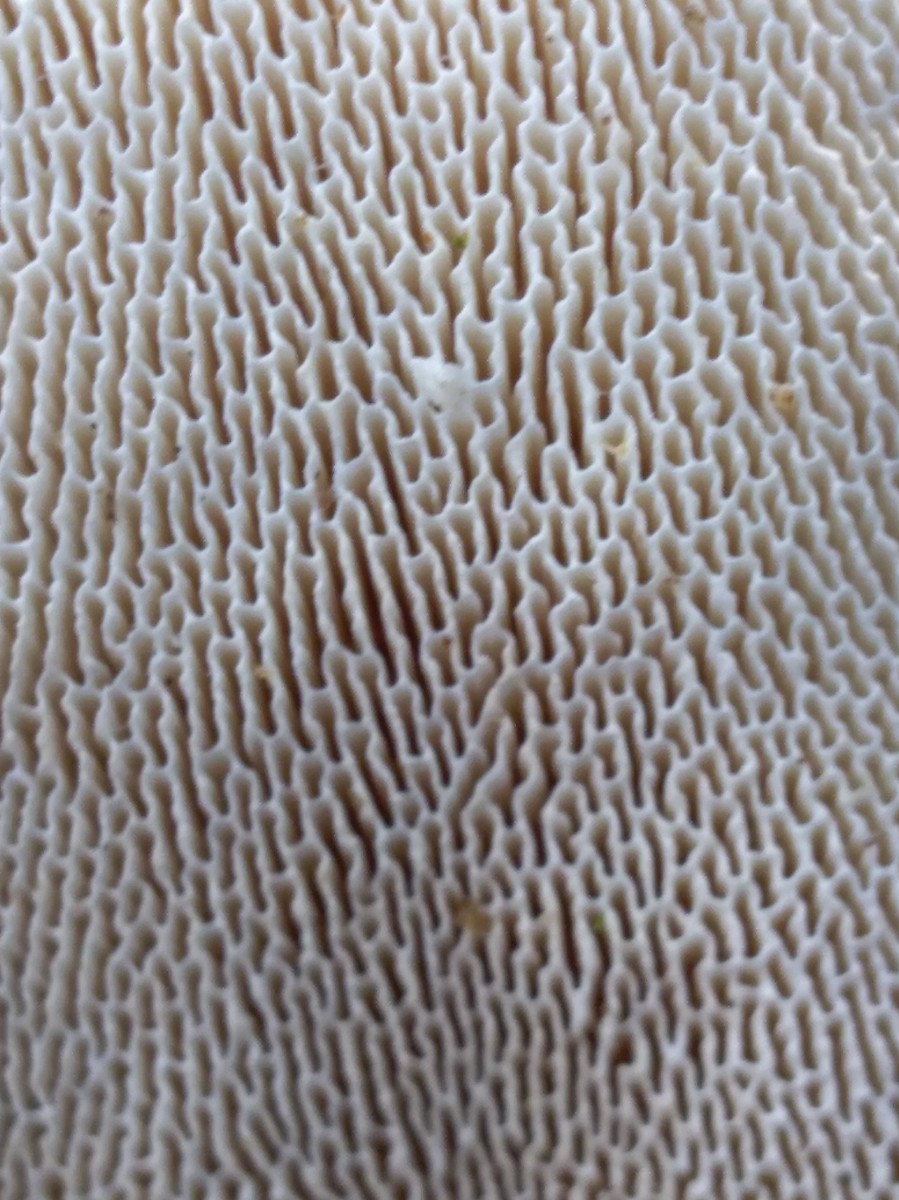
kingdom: Fungi
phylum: Basidiomycota
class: Agaricomycetes
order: Polyporales
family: Polyporaceae
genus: Trametes
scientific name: Trametes gibbosa
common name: puklet læderporesvamp
